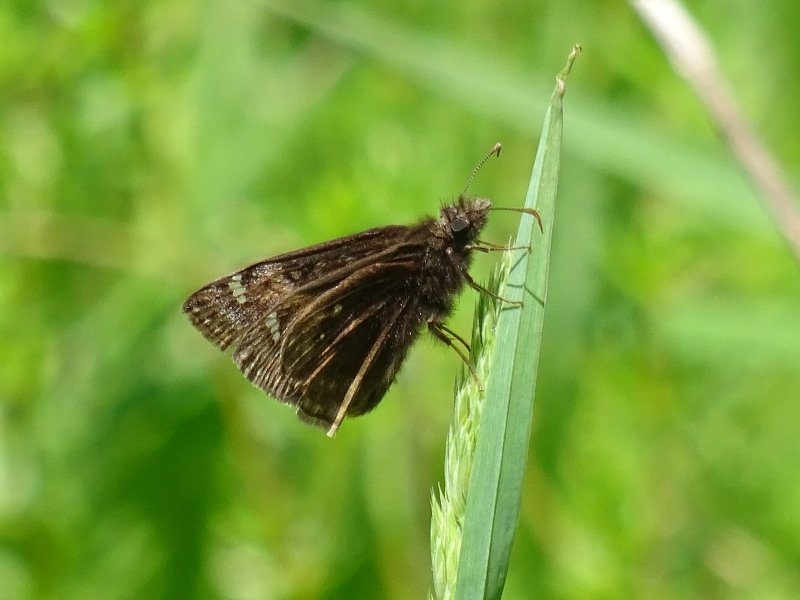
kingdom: Animalia
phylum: Arthropoda
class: Insecta
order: Lepidoptera
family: Hesperiidae
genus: Gesta
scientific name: Gesta
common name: Juvenal's Duskywing
